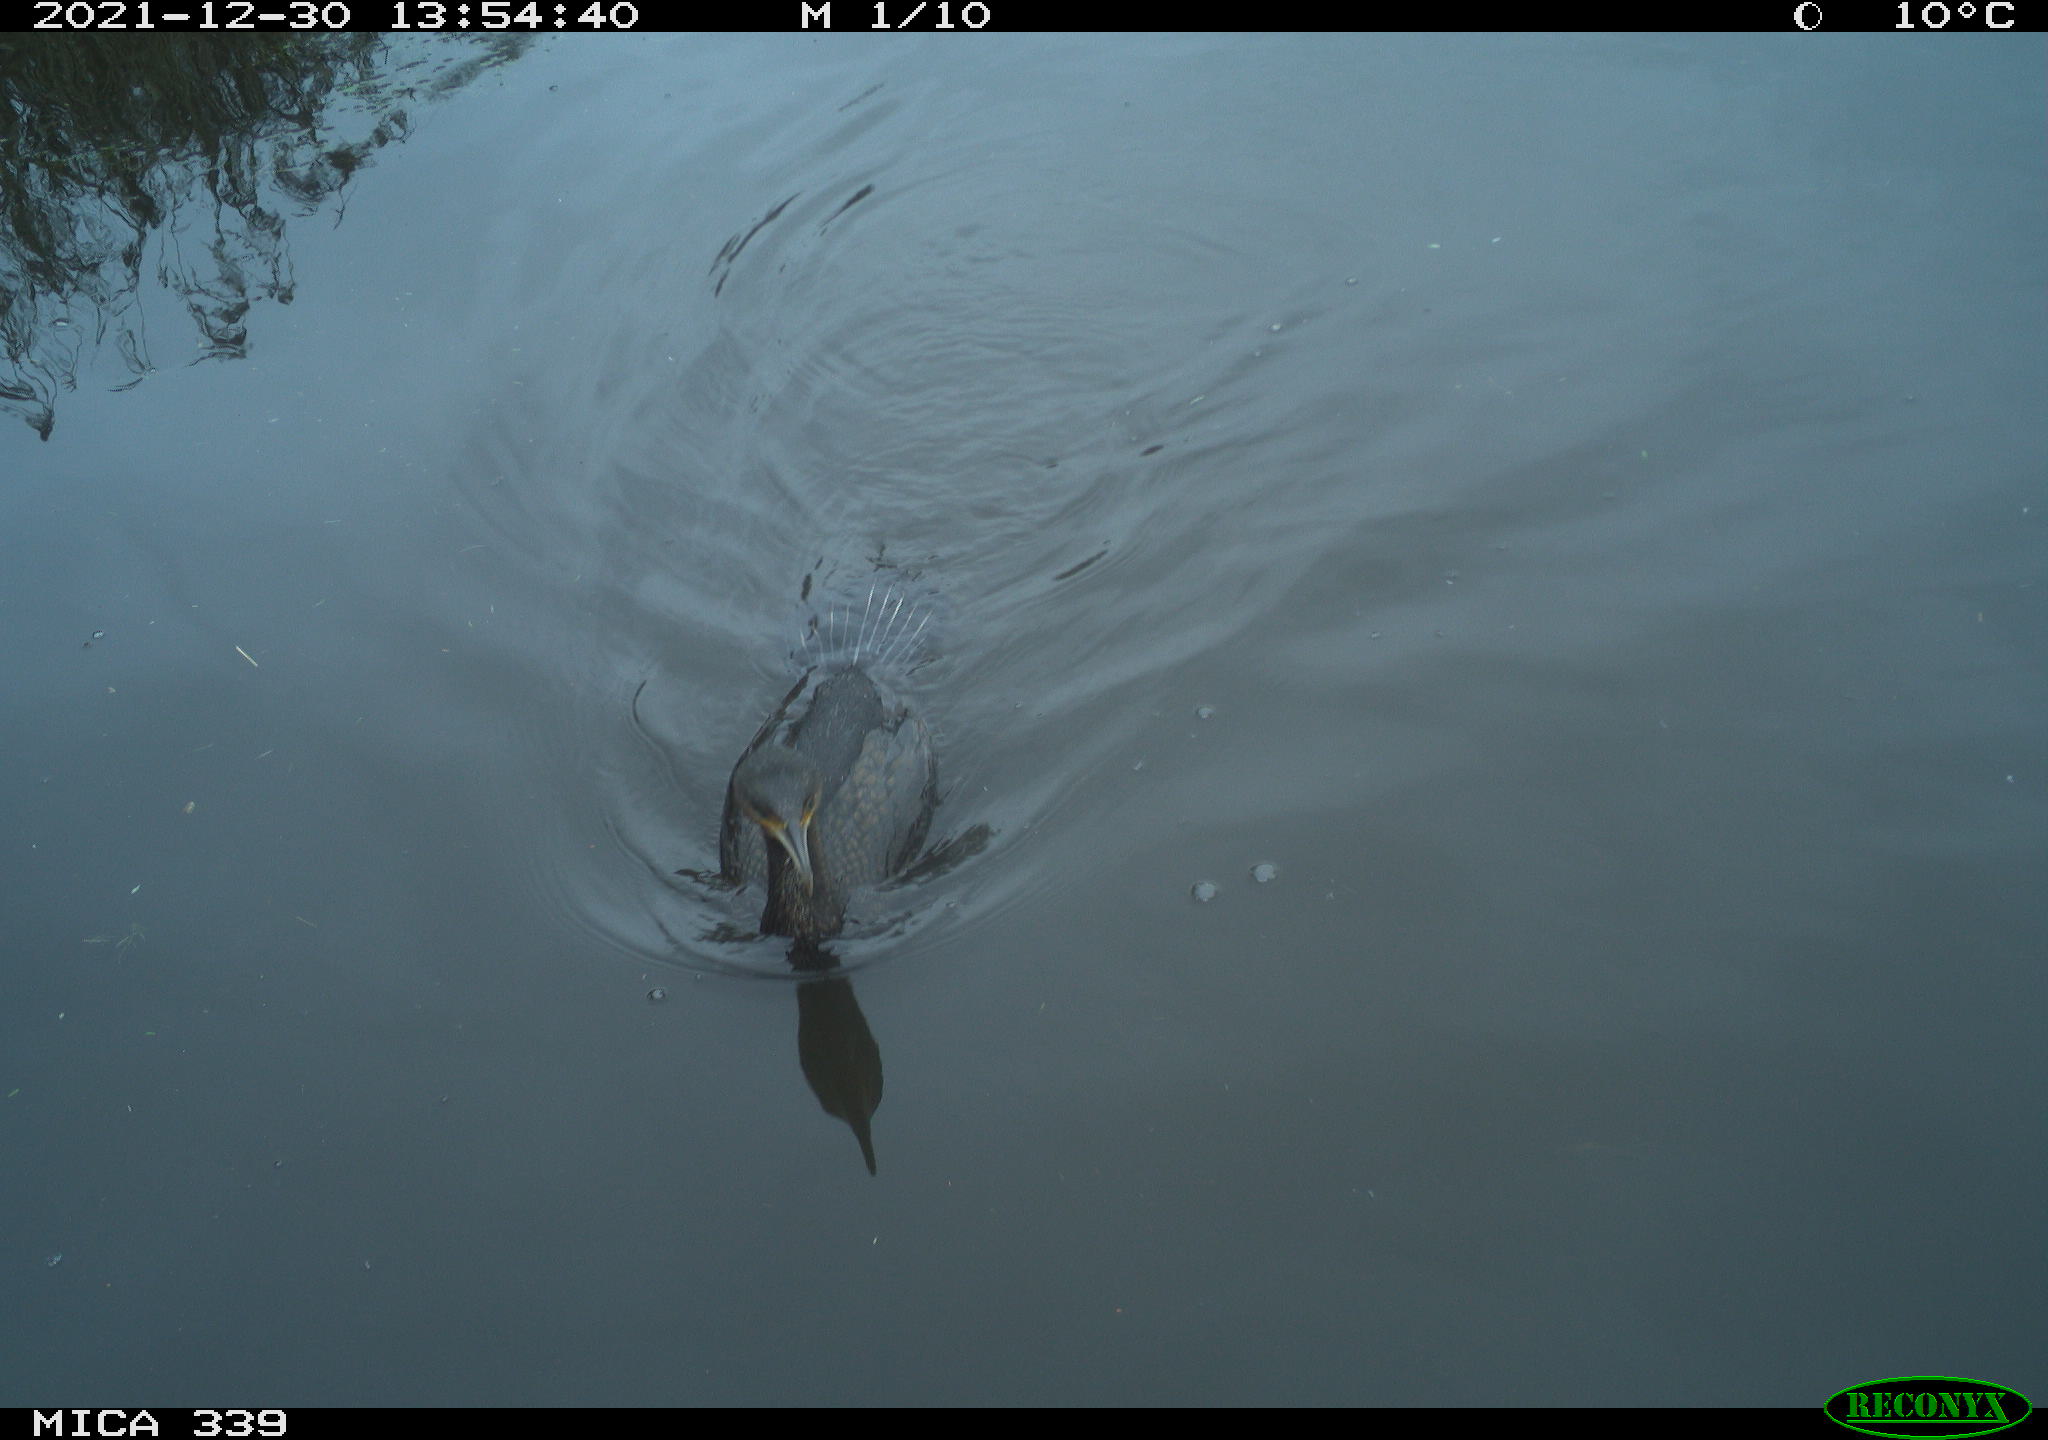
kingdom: Animalia
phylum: Chordata
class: Aves
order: Suliformes
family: Phalacrocoracidae
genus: Phalacrocorax
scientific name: Phalacrocorax carbo
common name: Great cormorant
